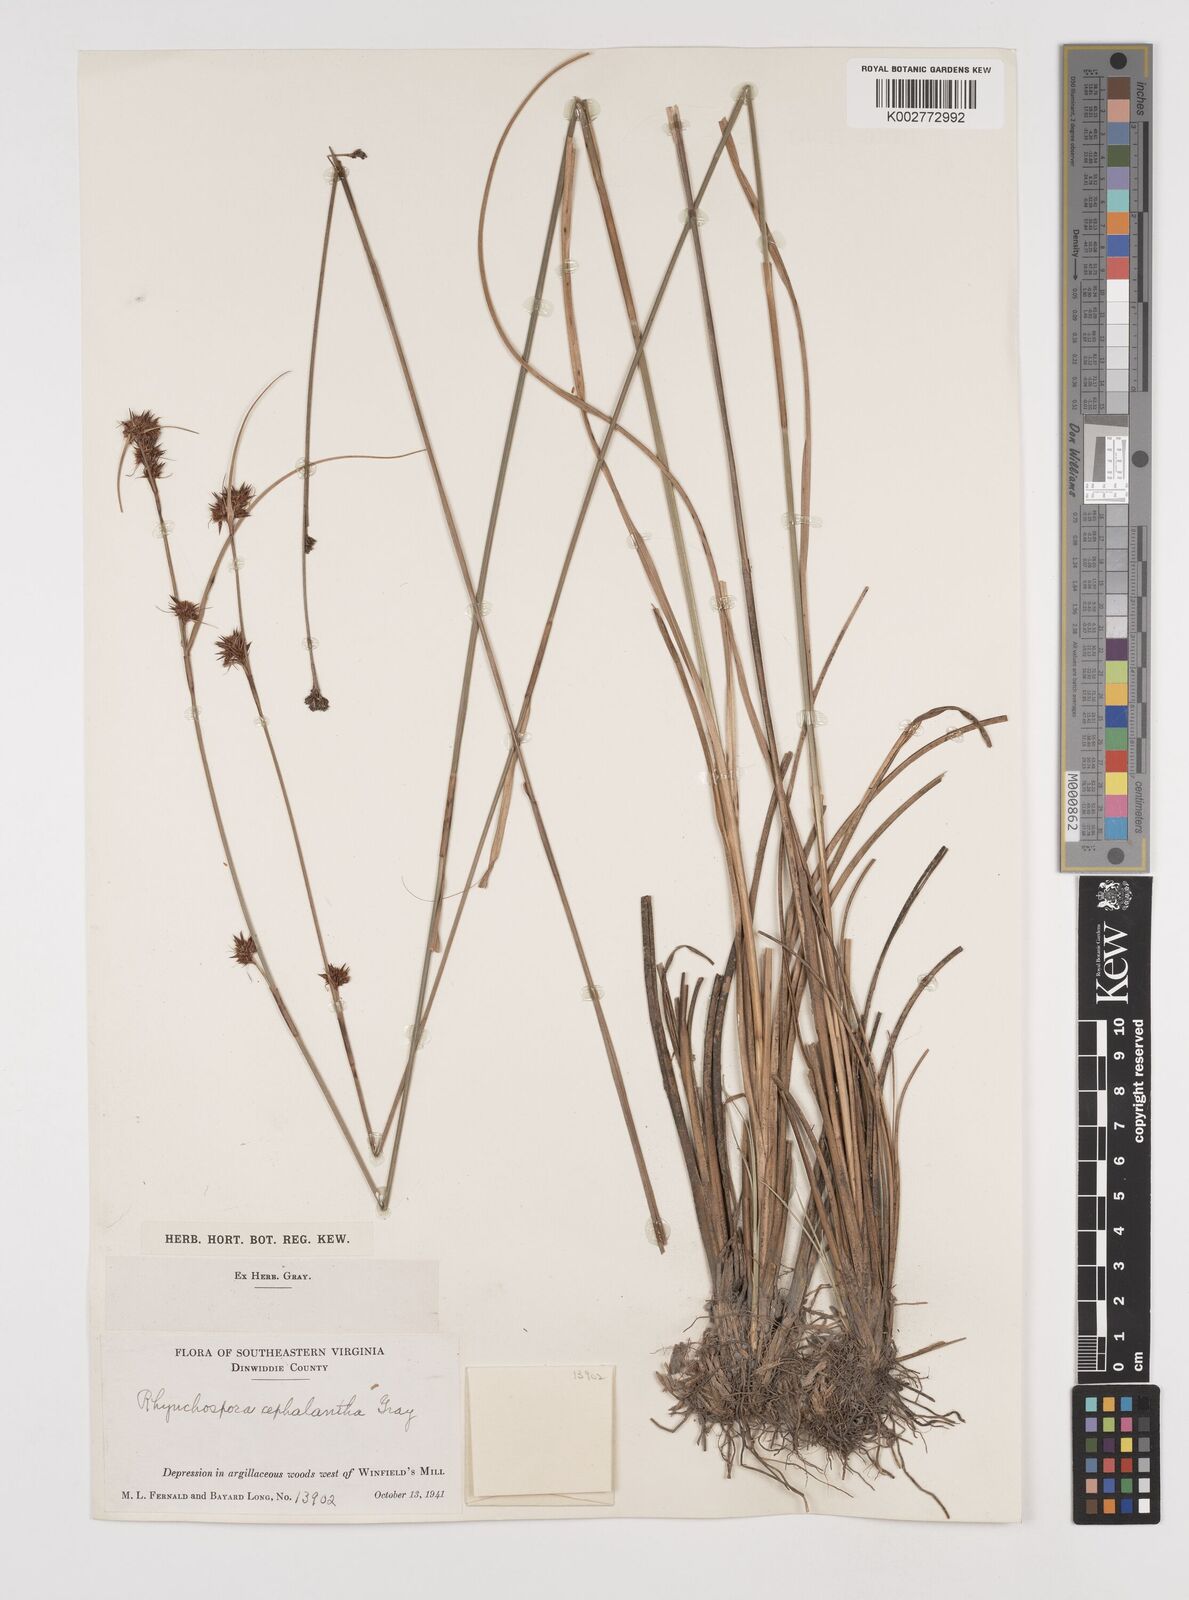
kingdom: Plantae
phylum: Tracheophyta
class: Liliopsida
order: Poales
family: Cyperaceae
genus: Rhynchospora
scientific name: Rhynchospora cephalantha
